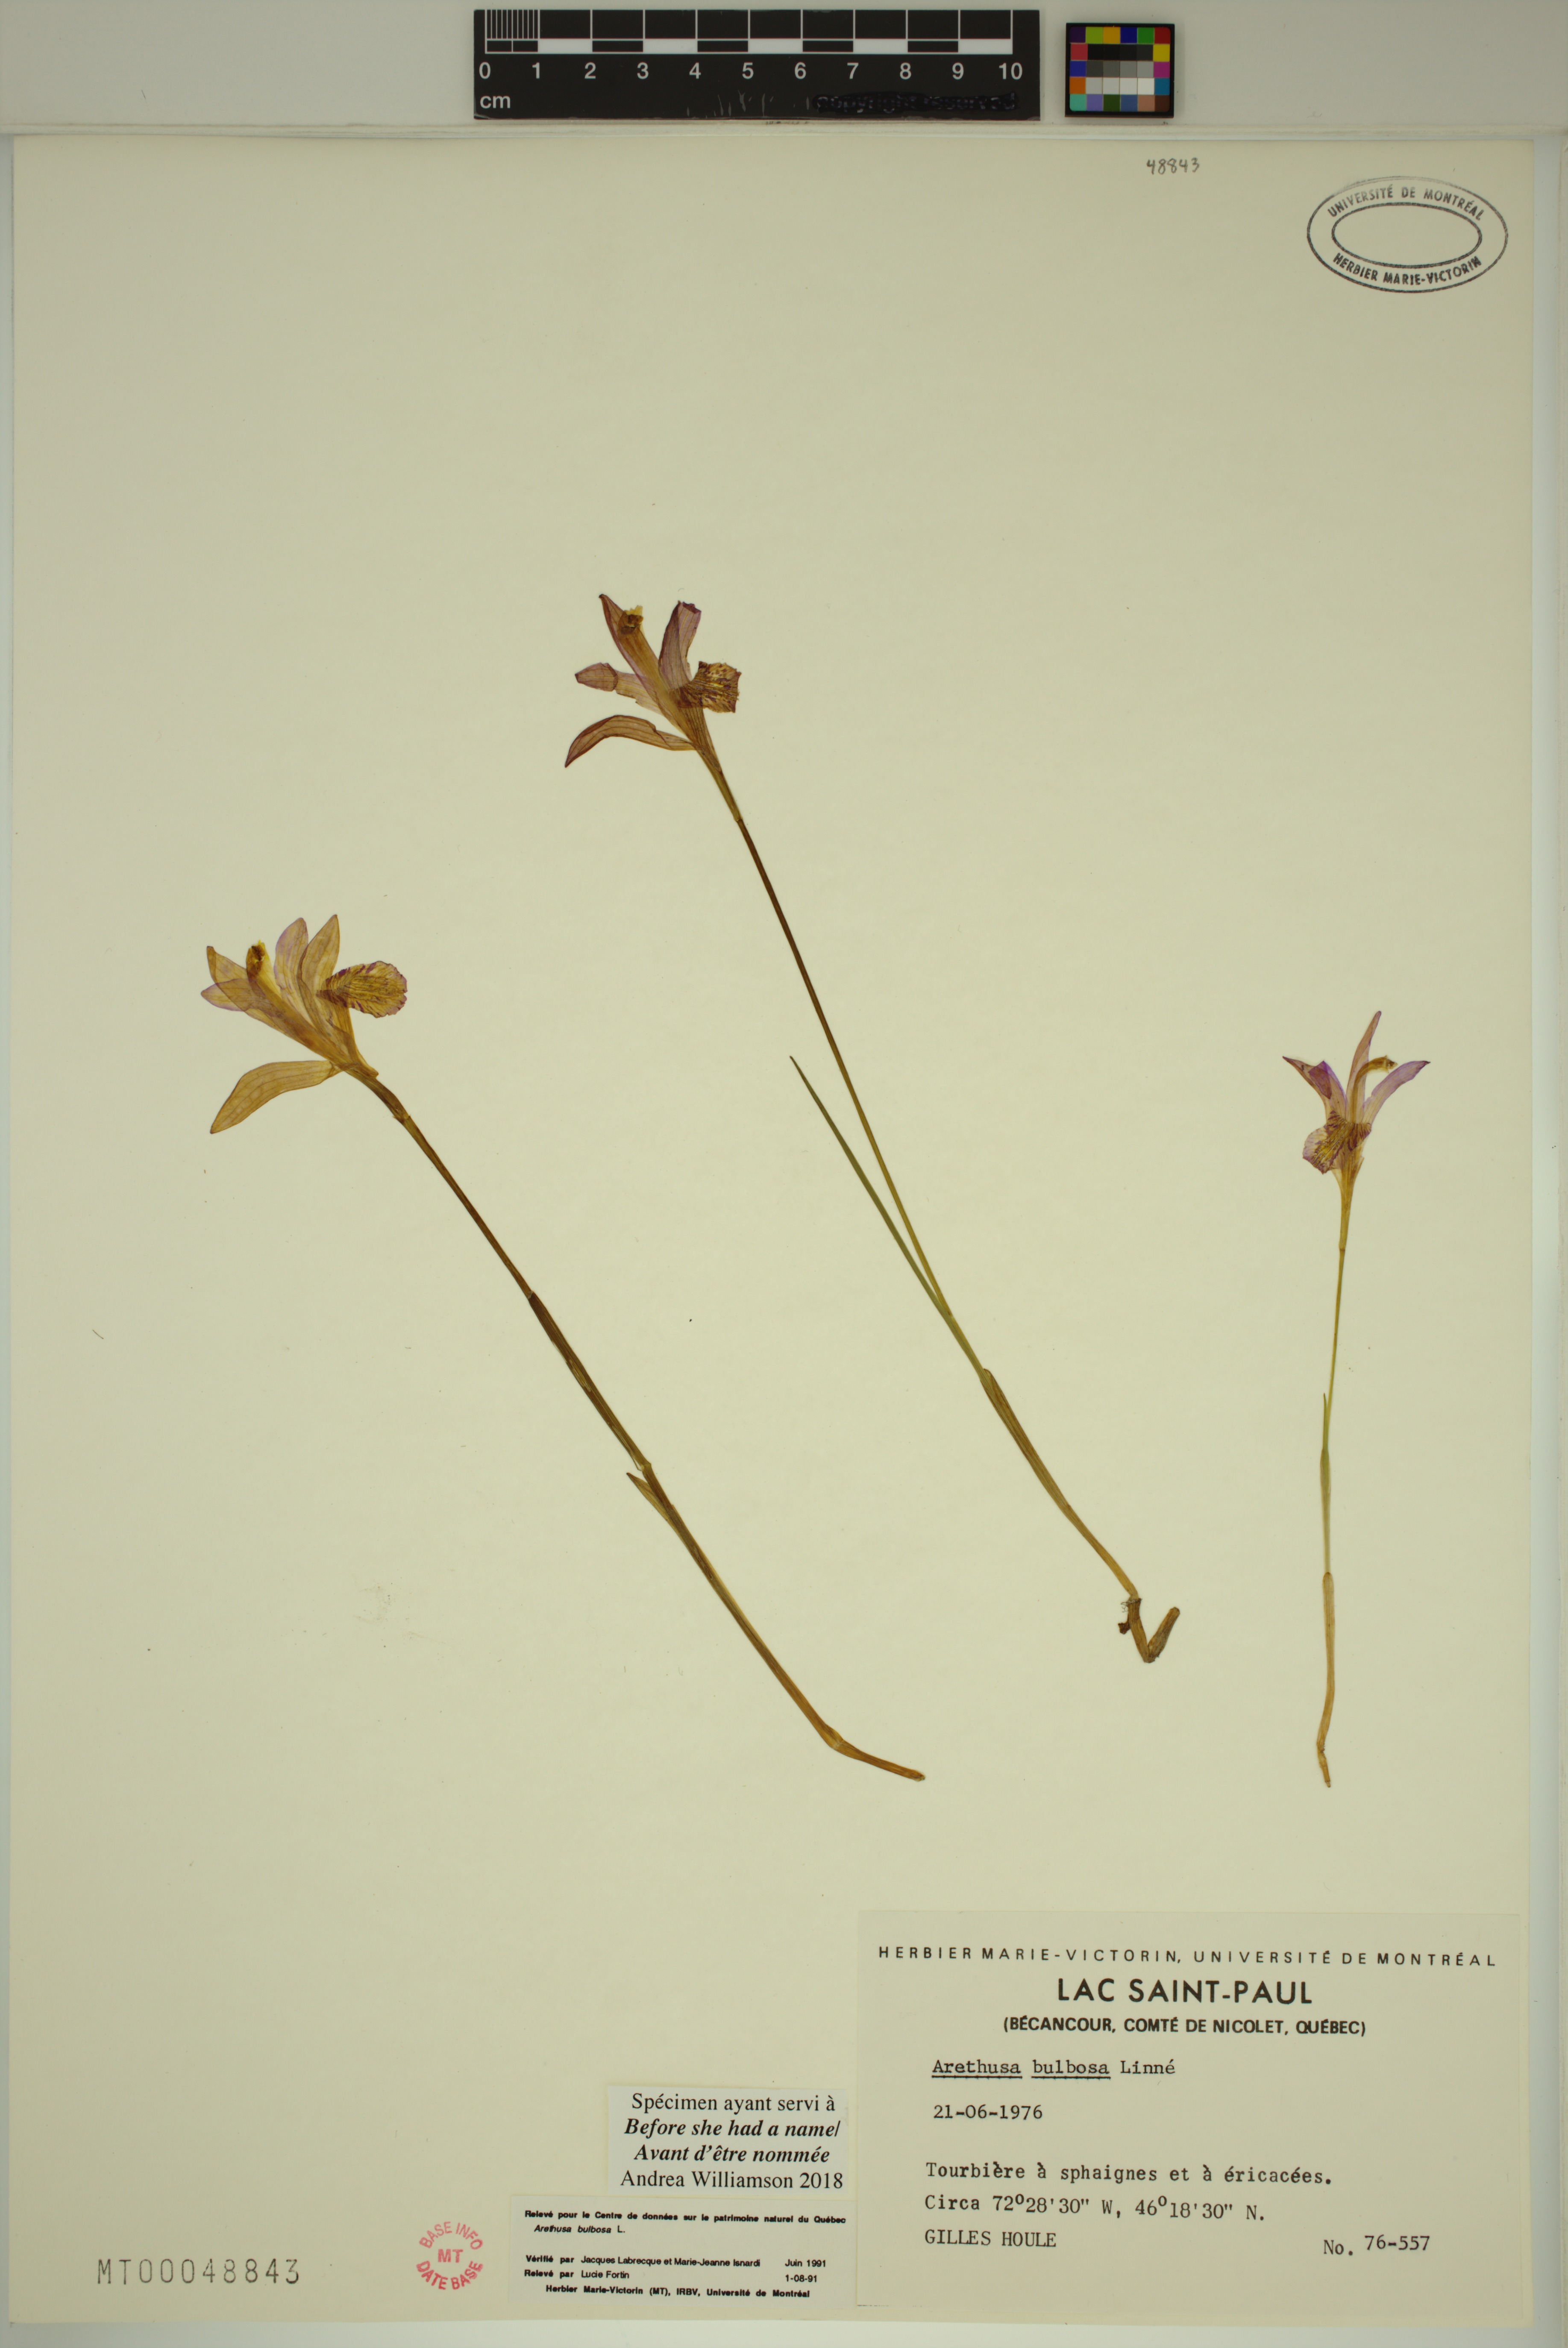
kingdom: Plantae
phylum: Tracheophyta
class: Liliopsida
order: Asparagales
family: Orchidaceae
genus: Arethusa
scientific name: Arethusa bulbosa
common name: Arethusa
